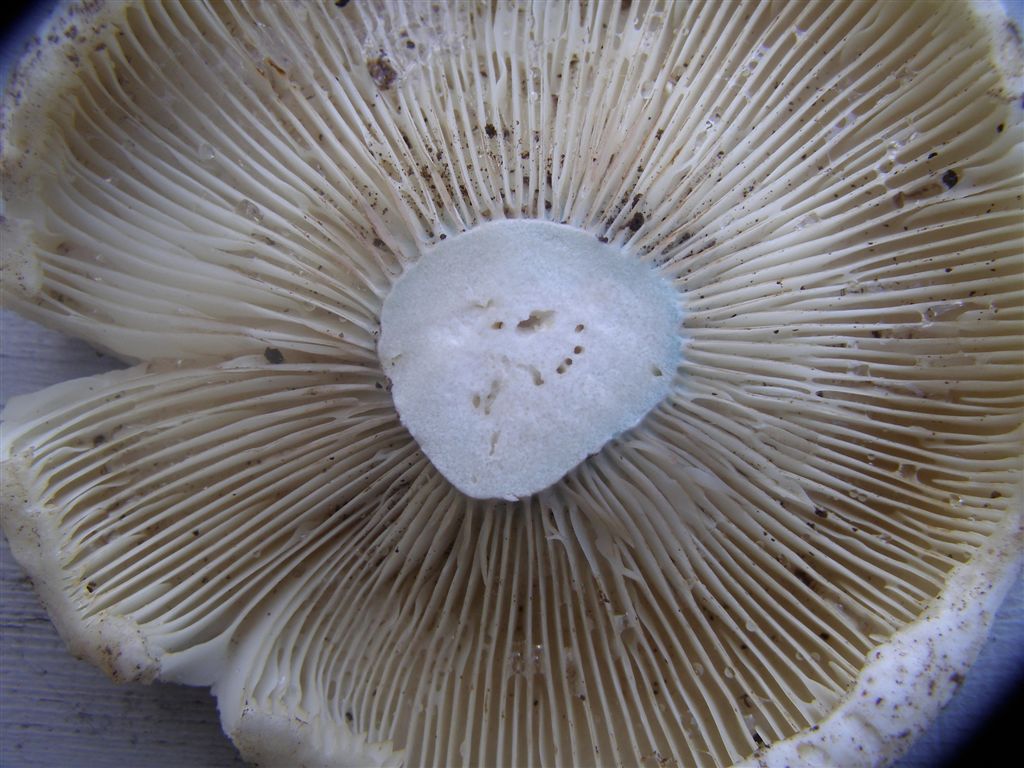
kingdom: Fungi
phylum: Basidiomycota
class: Agaricomycetes
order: Russulales
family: Russulaceae
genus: Russula
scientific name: Russula chloroides
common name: grønhalset tragt-skørhat
